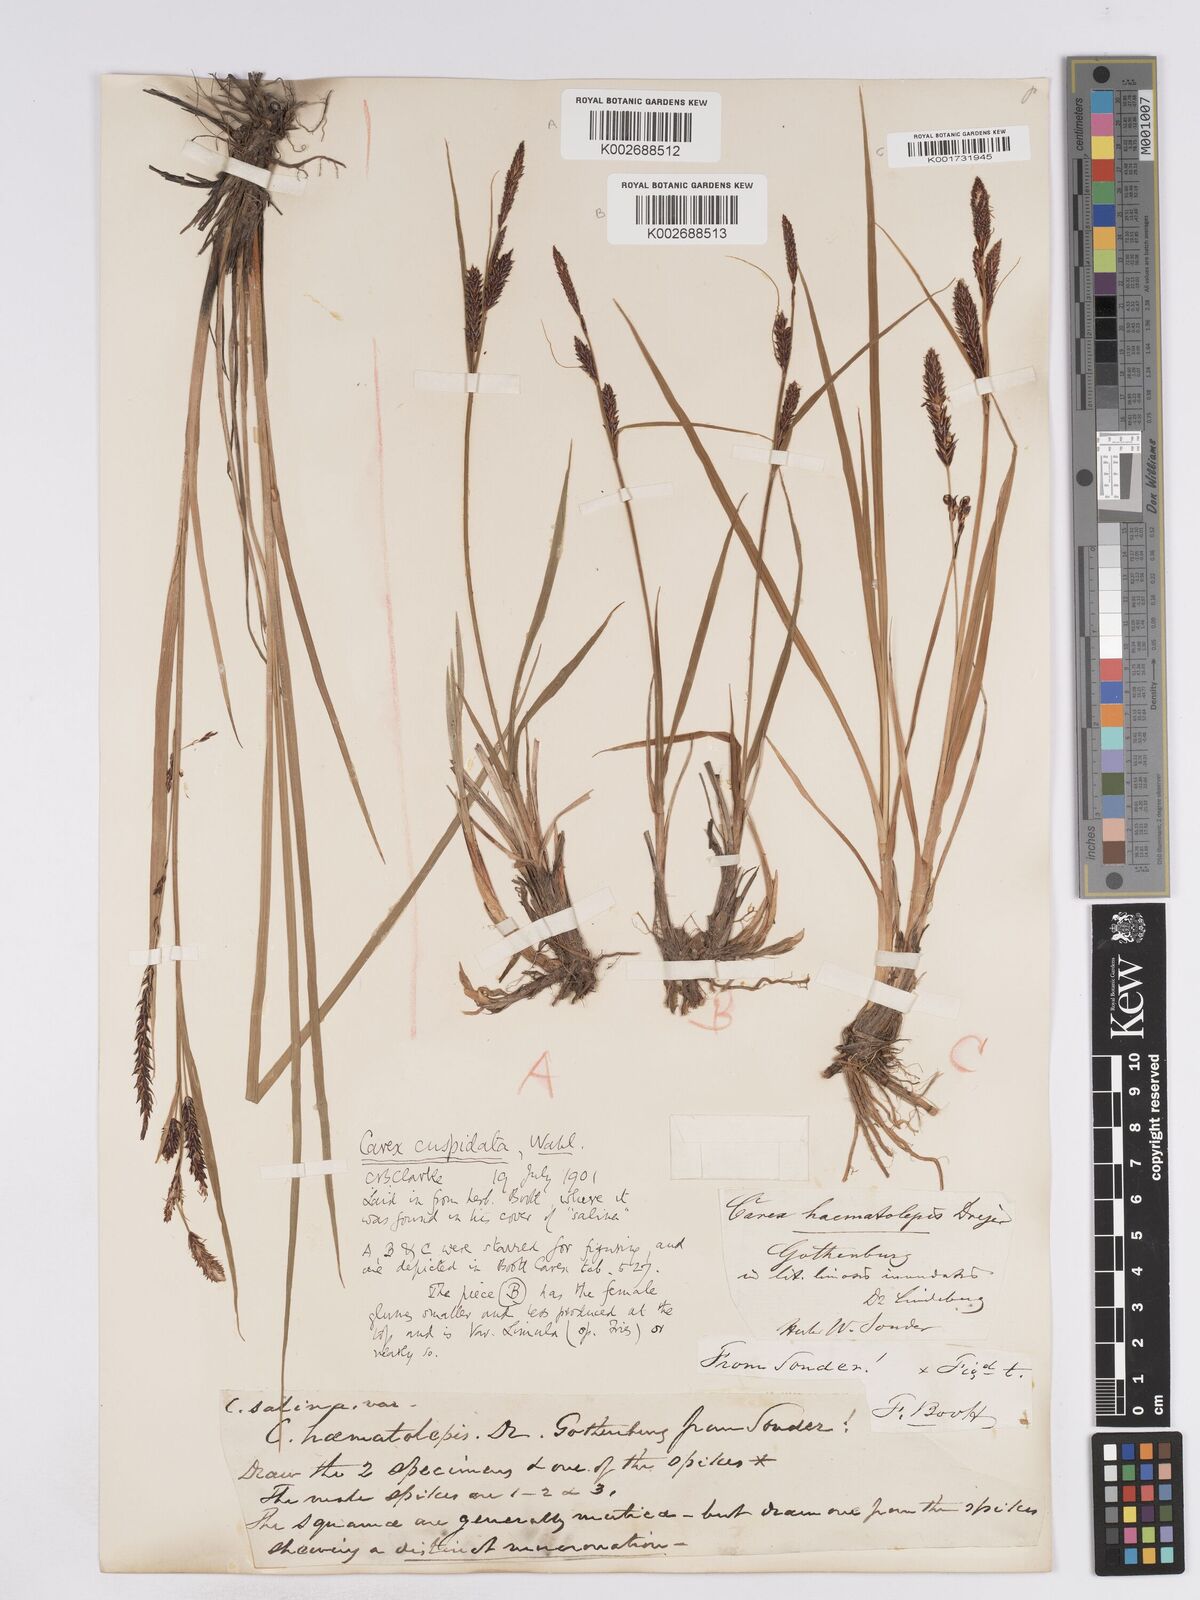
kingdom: Plantae
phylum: Tracheophyta
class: Liliopsida
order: Poales
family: Cyperaceae
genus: Carex
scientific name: Carex recta
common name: Estuarine sedge
